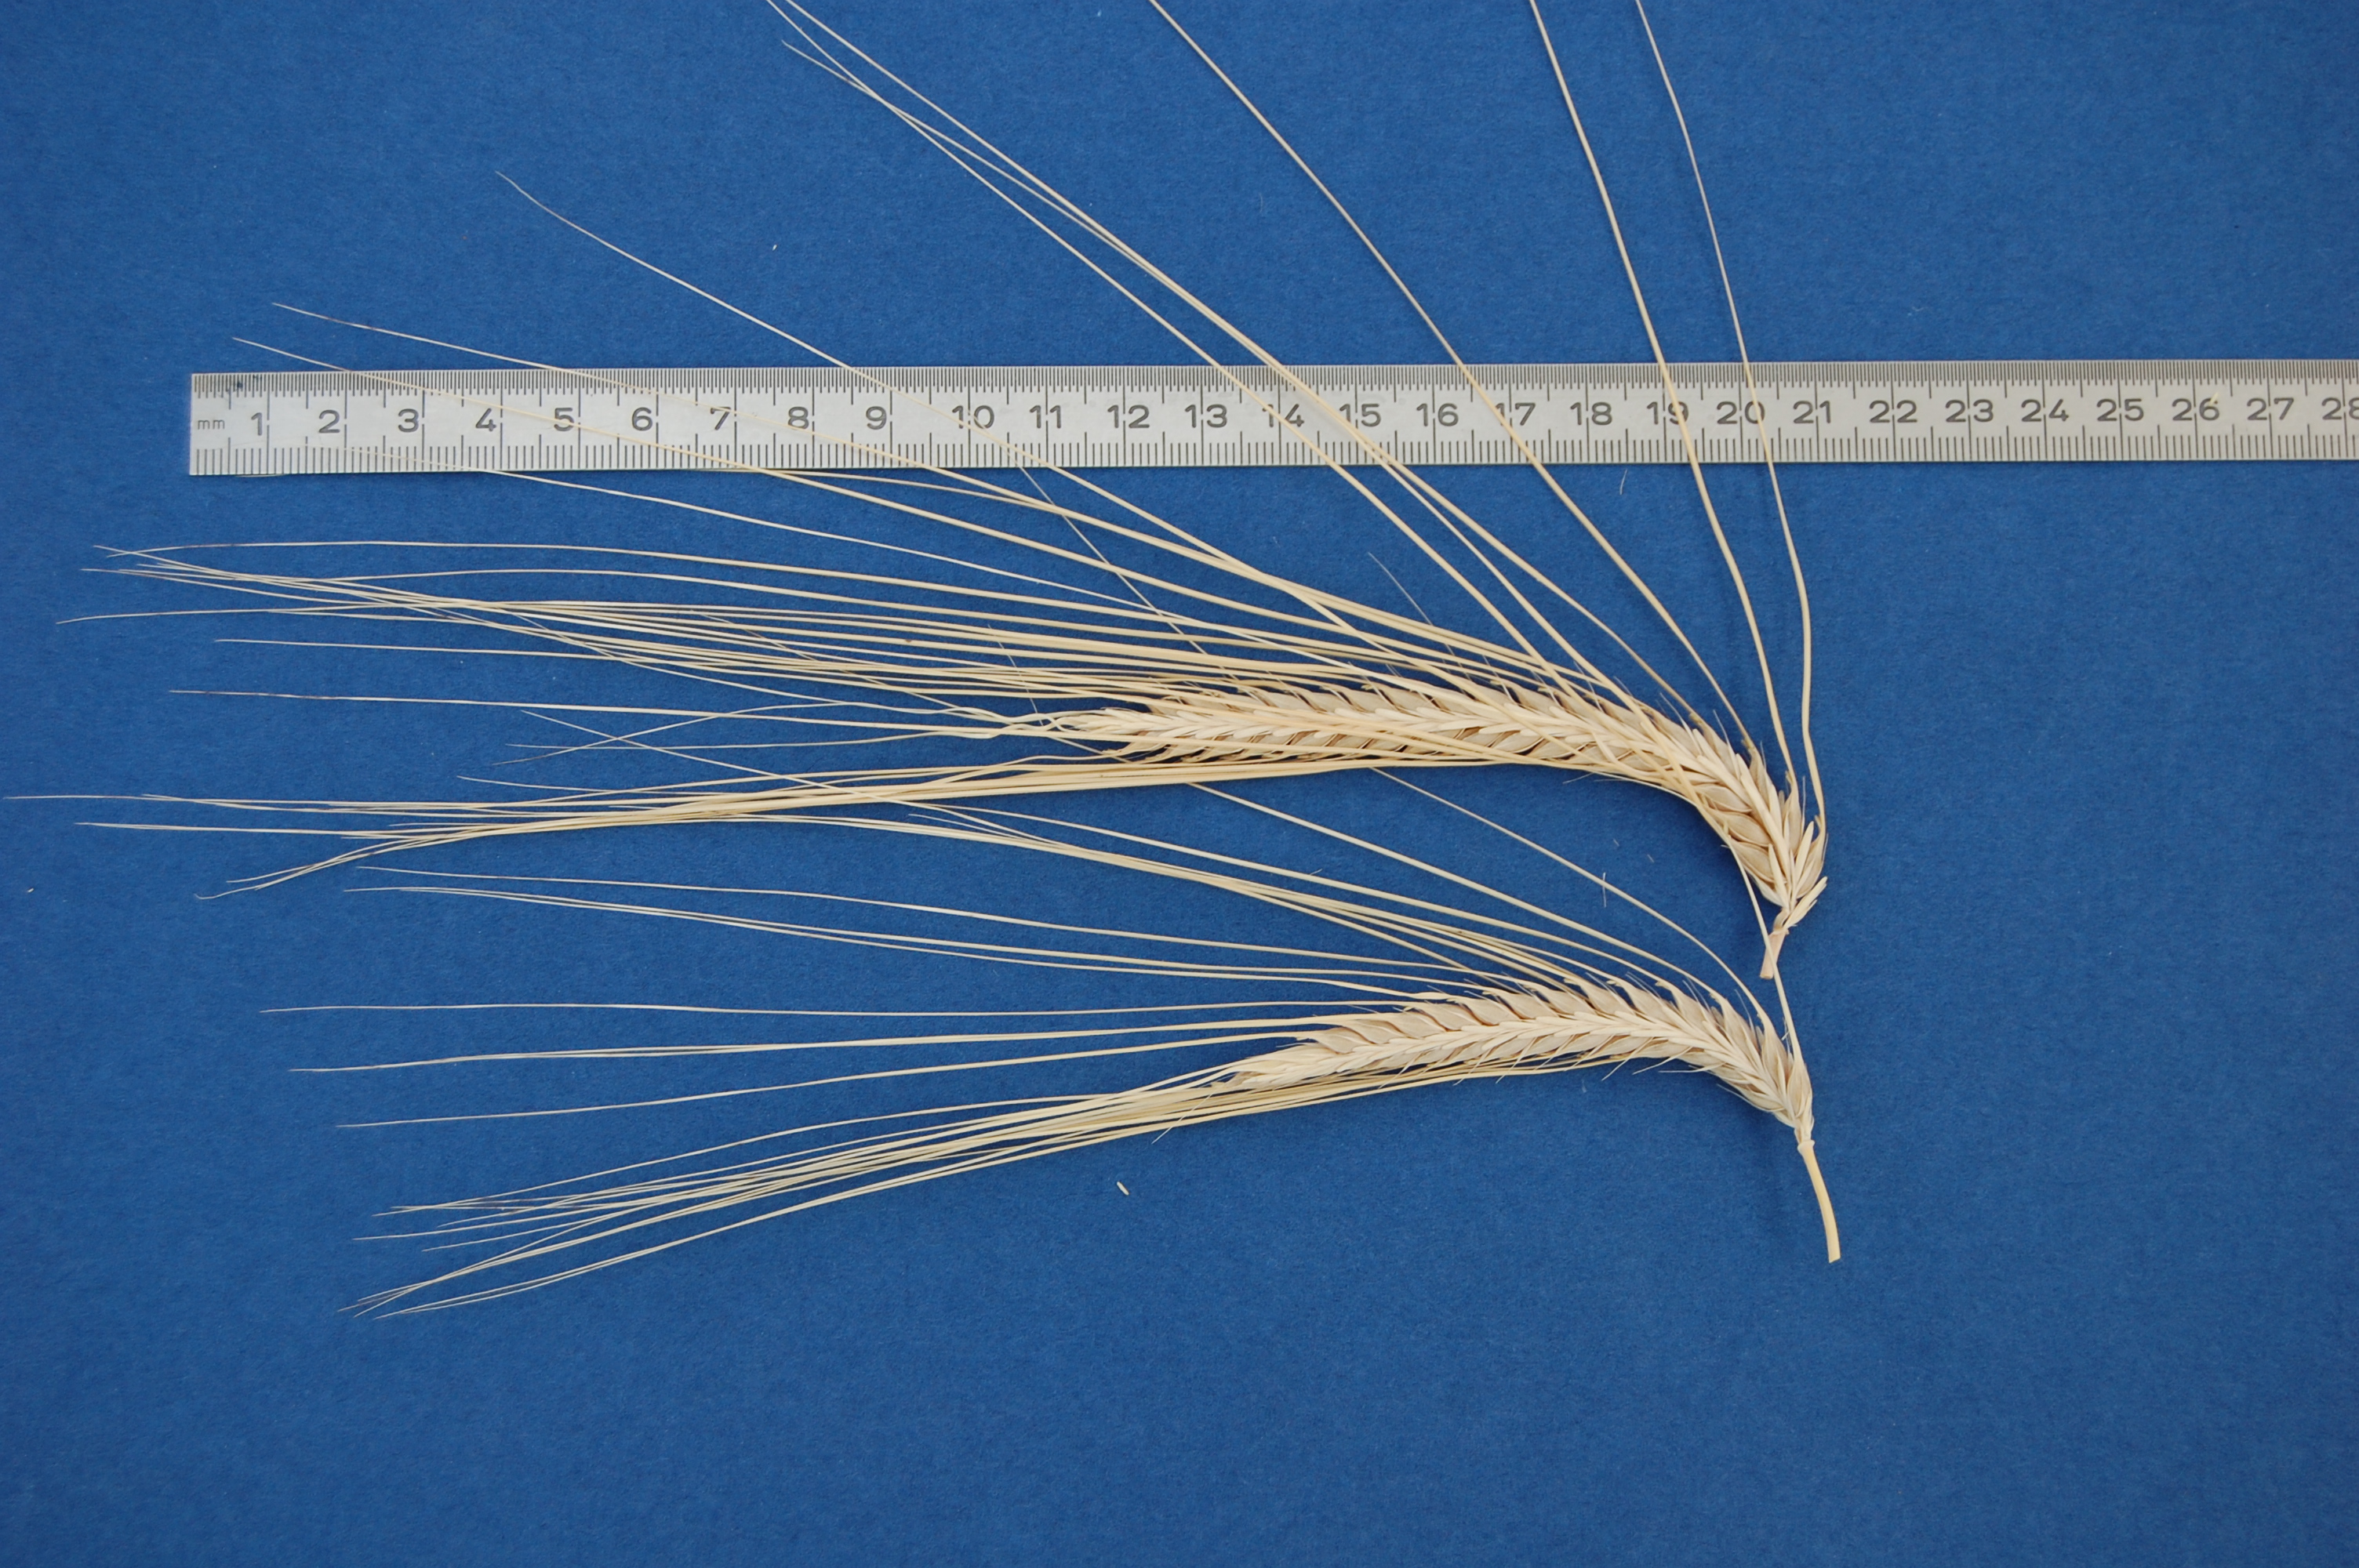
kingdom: Plantae
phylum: Tracheophyta
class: Liliopsida
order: Poales
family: Poaceae
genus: Hordeum
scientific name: Hordeum vulgare
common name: Common barley
